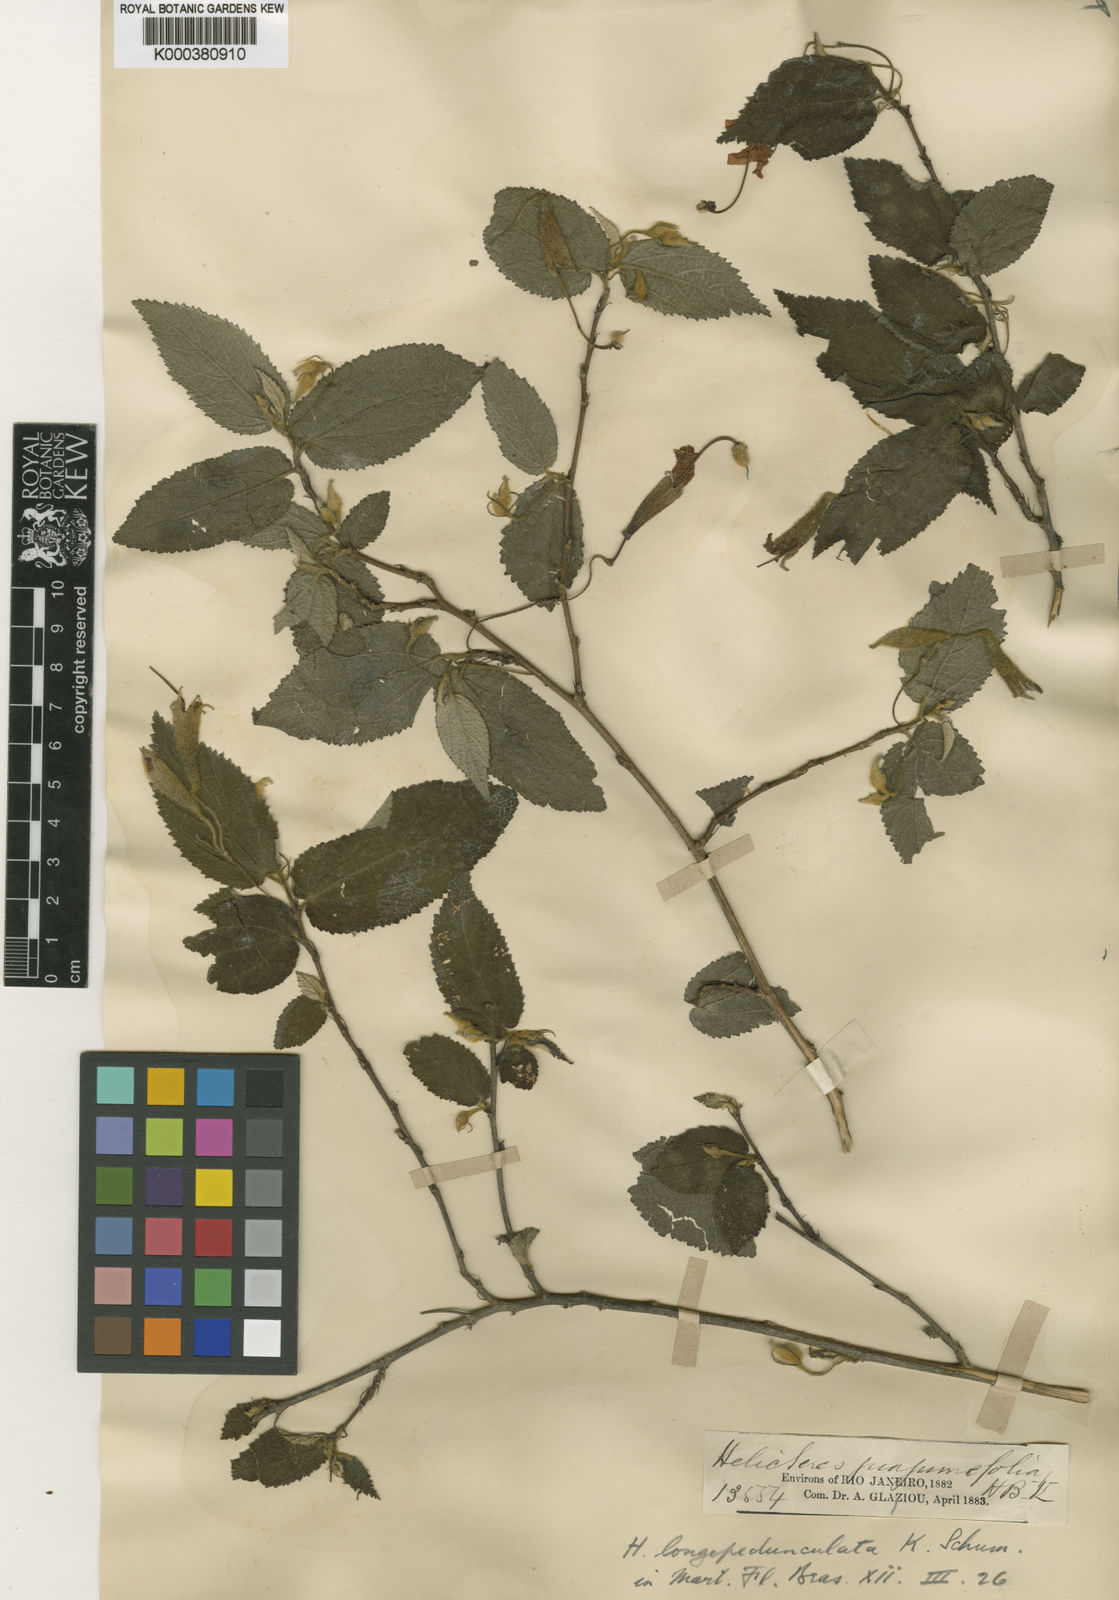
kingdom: Plantae
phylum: Tracheophyta
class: Magnoliopsida
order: Malvales
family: Malvaceae
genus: Helicteres
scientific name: Helicteres longepedunculata
